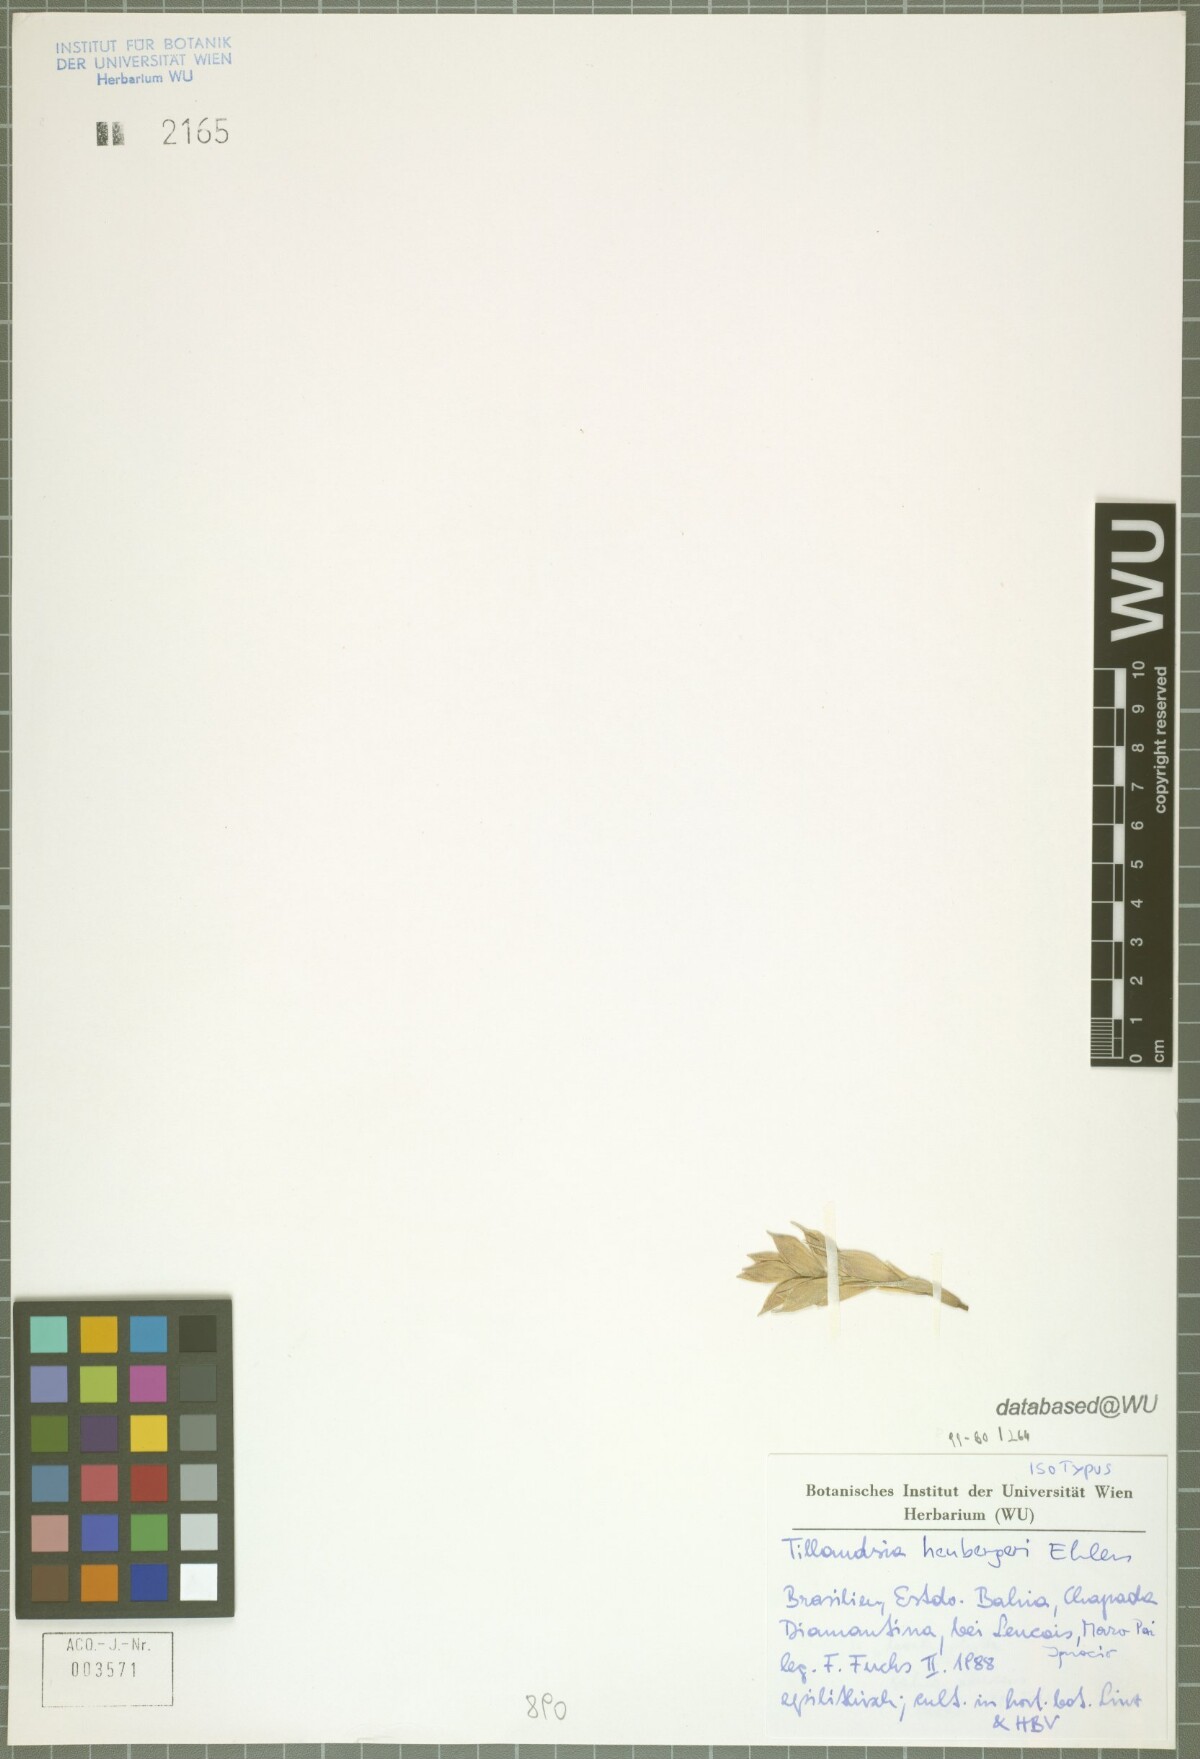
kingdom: Plantae
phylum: Tracheophyta
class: Liliopsida
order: Poales
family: Bromeliaceae
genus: Tillandsia
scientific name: Tillandsia heubergeri
